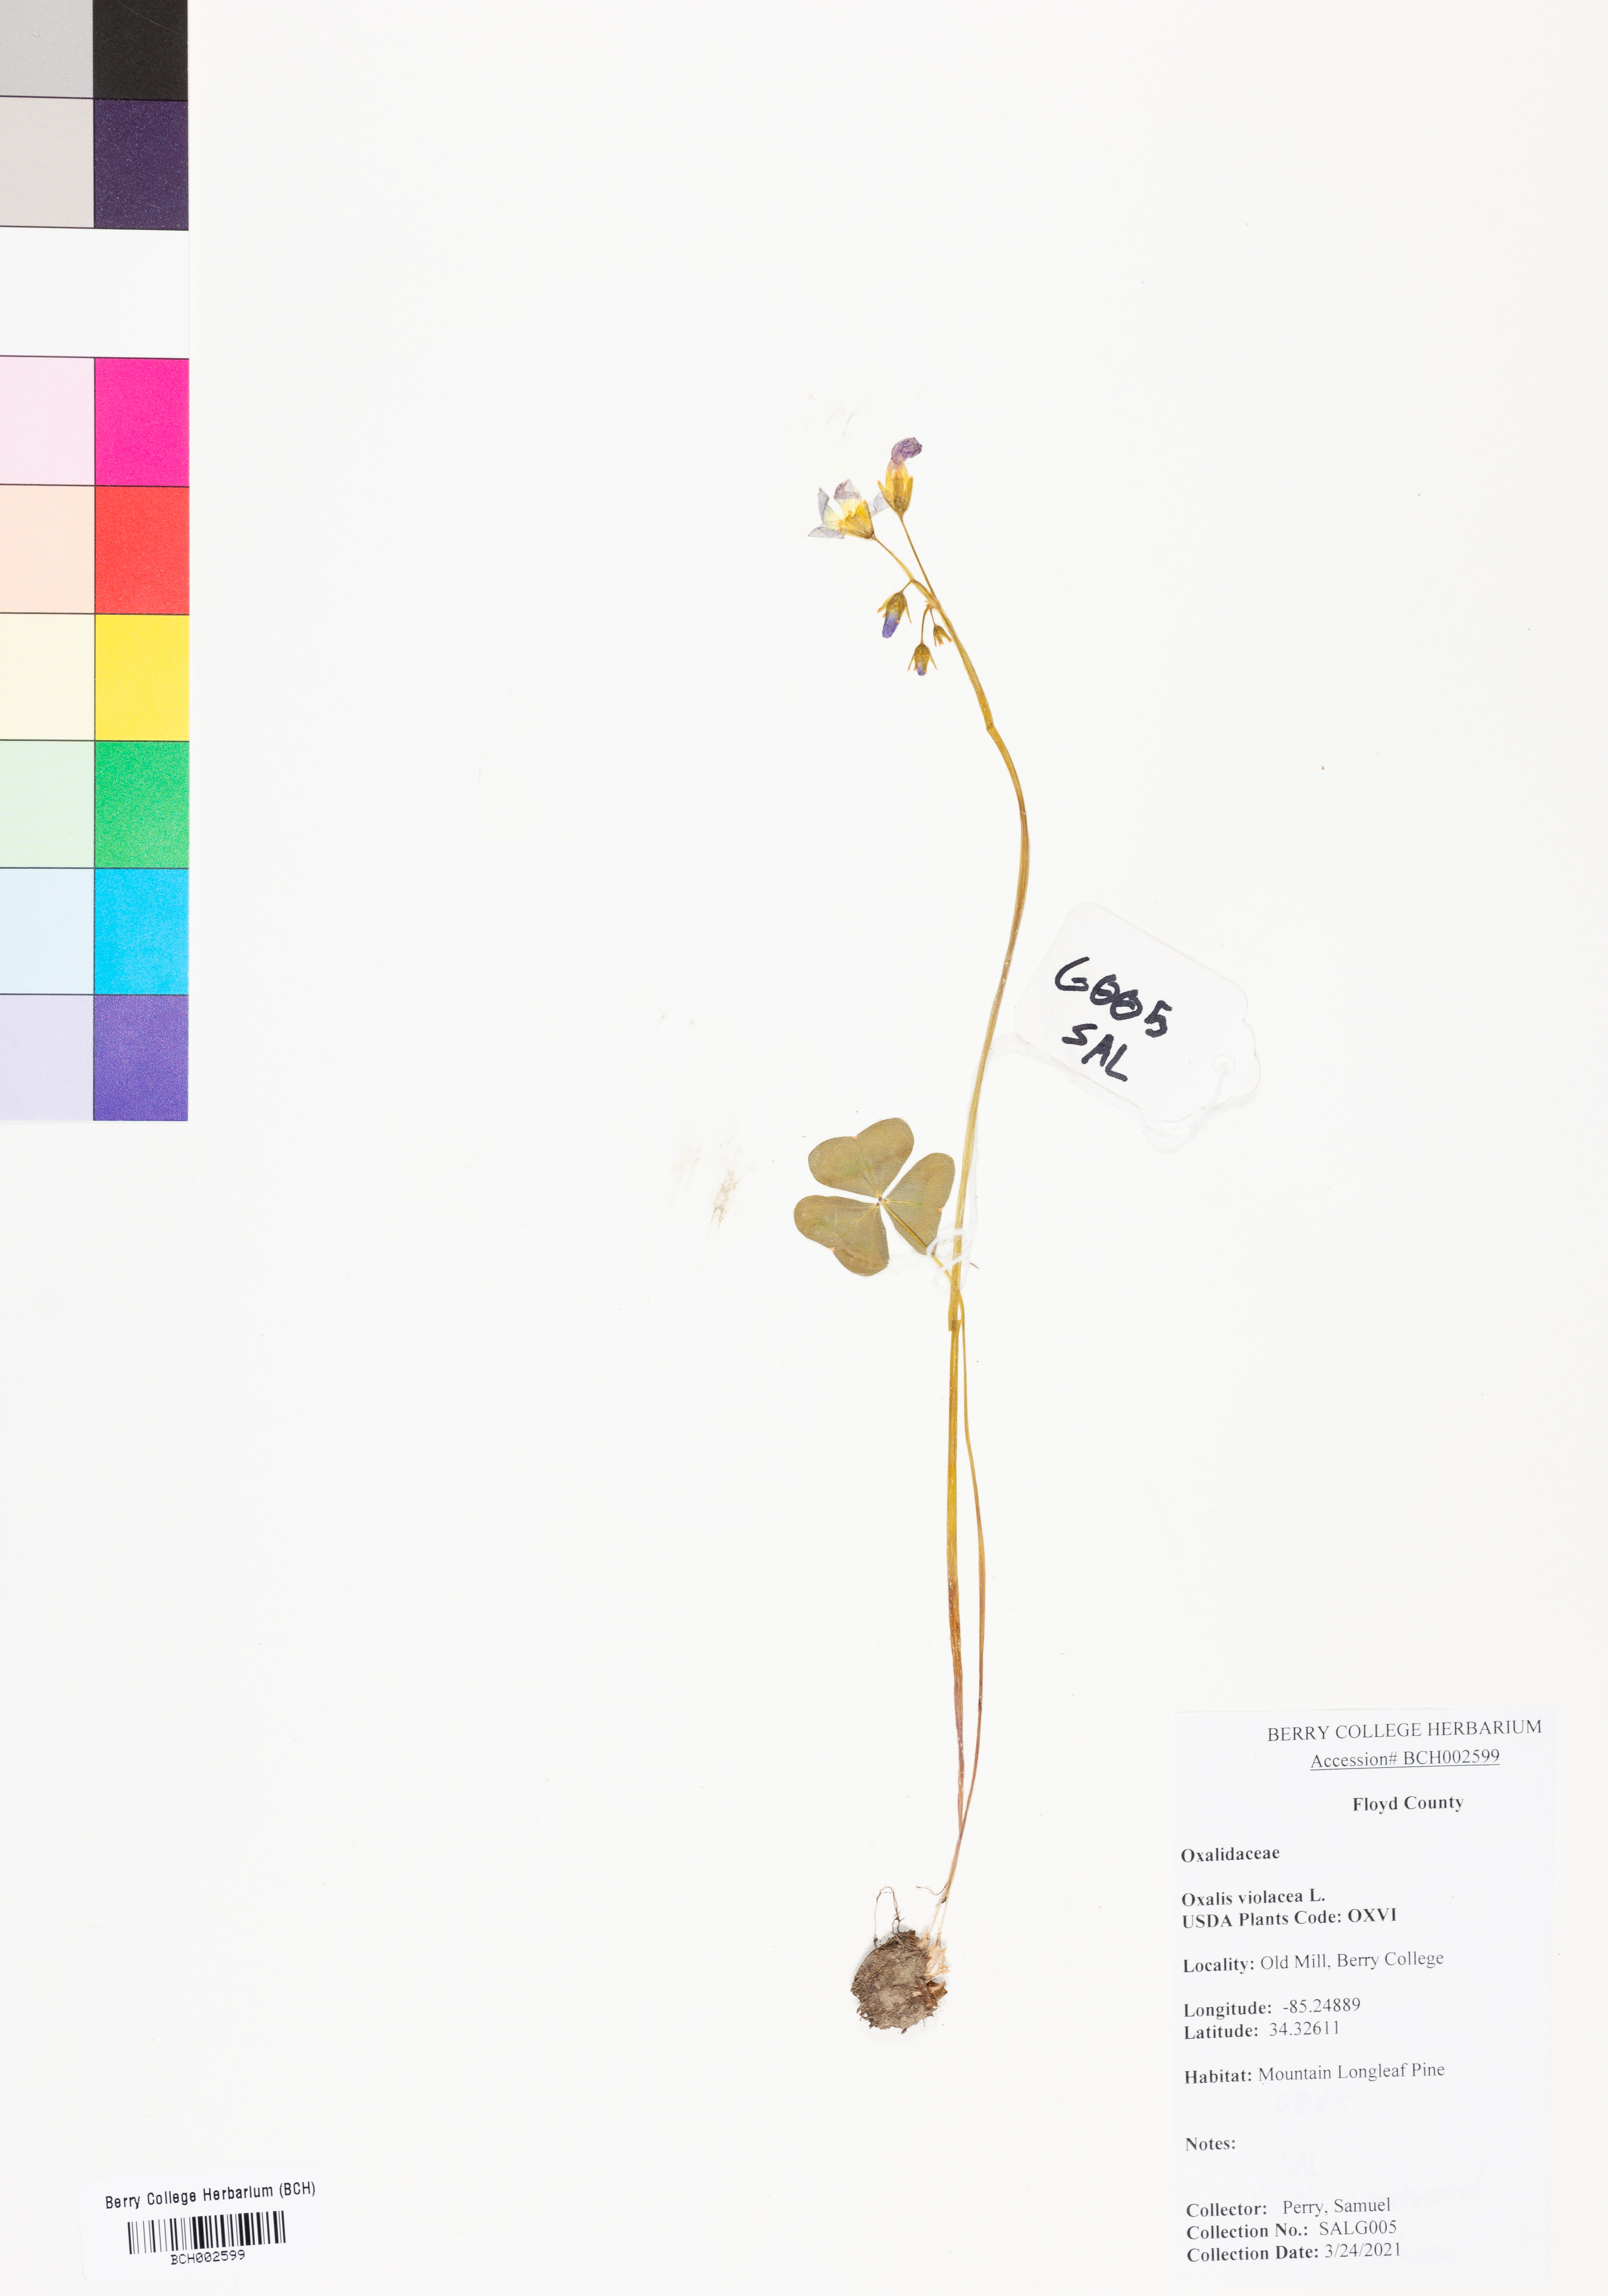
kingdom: Plantae
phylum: Tracheophyta
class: Magnoliopsida
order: Oxalidales
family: Oxalidaceae
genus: Oxalis
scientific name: Oxalis violacea
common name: Violet wood-sorrel
